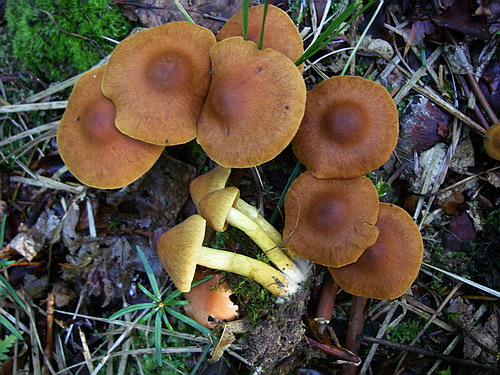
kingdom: Fungi
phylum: Basidiomycota
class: Agaricomycetes
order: Agaricales
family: Cortinariaceae
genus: Cortinarius
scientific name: Cortinarius
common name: gulbladet slørhat
